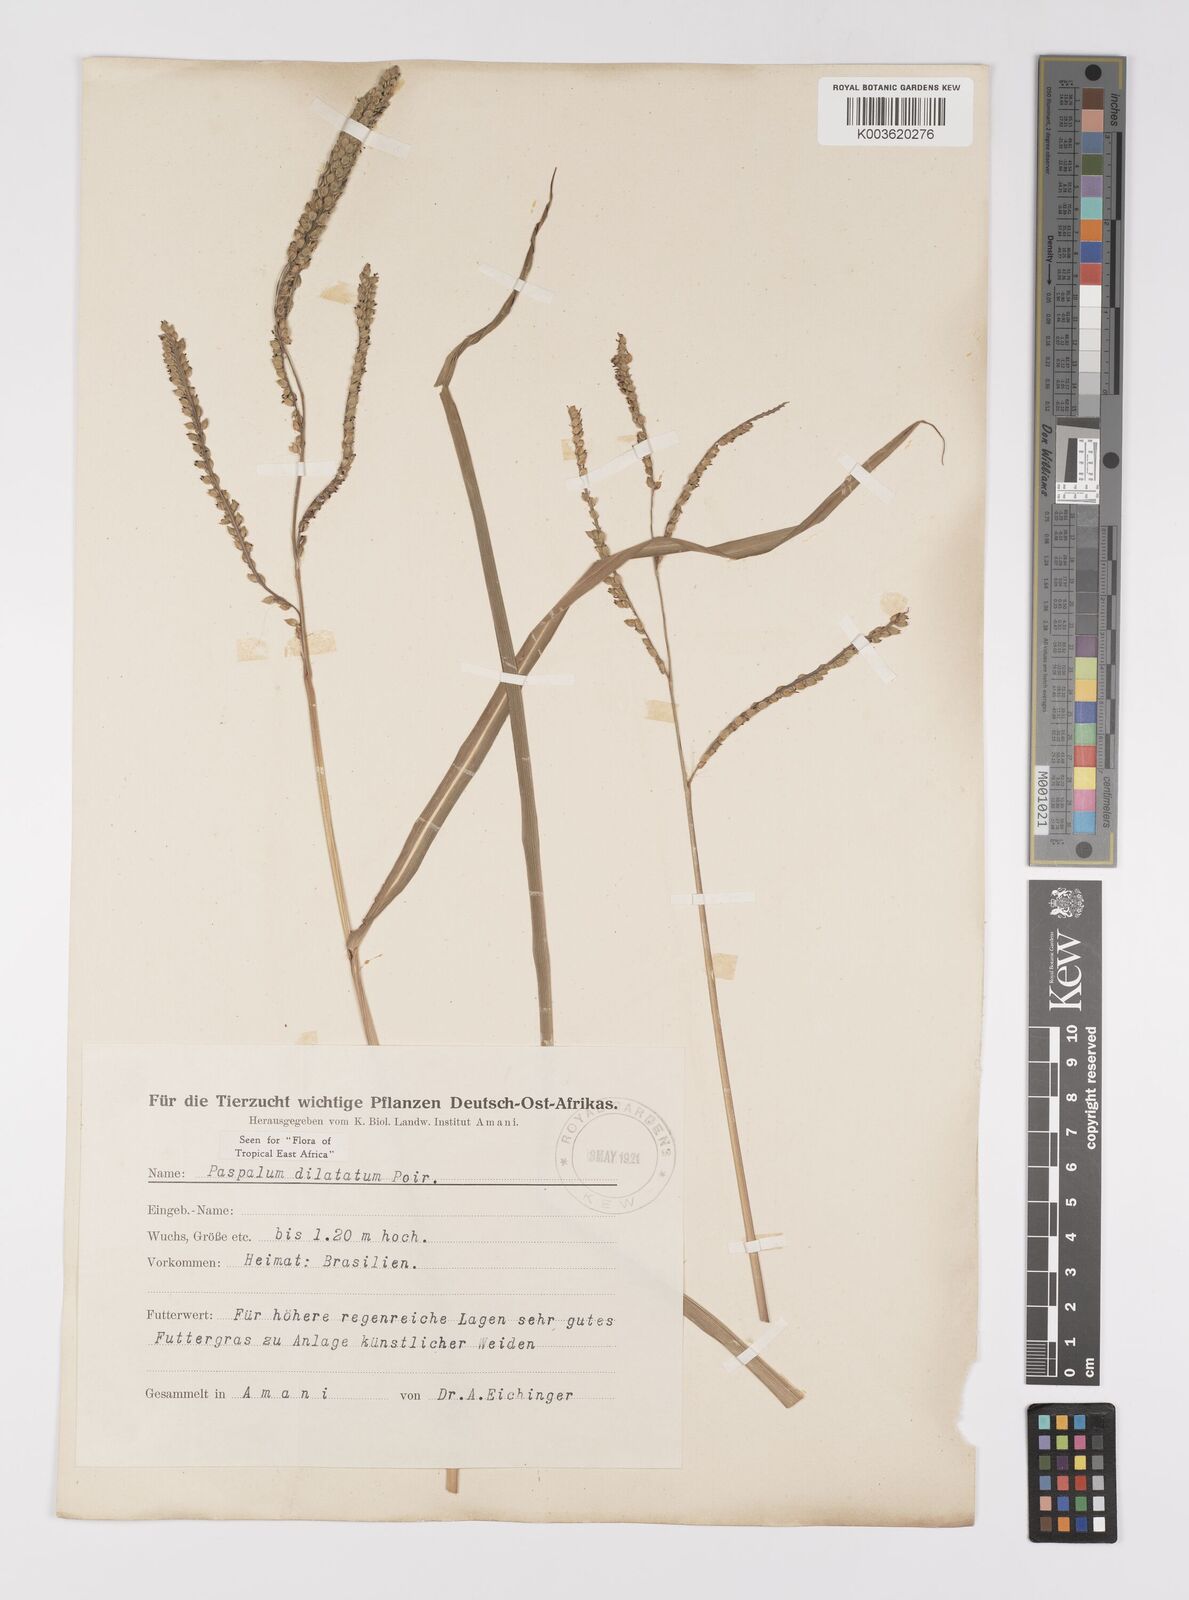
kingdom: Plantae
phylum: Tracheophyta
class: Liliopsida
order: Poales
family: Poaceae
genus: Paspalum
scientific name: Paspalum dilatatum
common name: Dallisgrass
